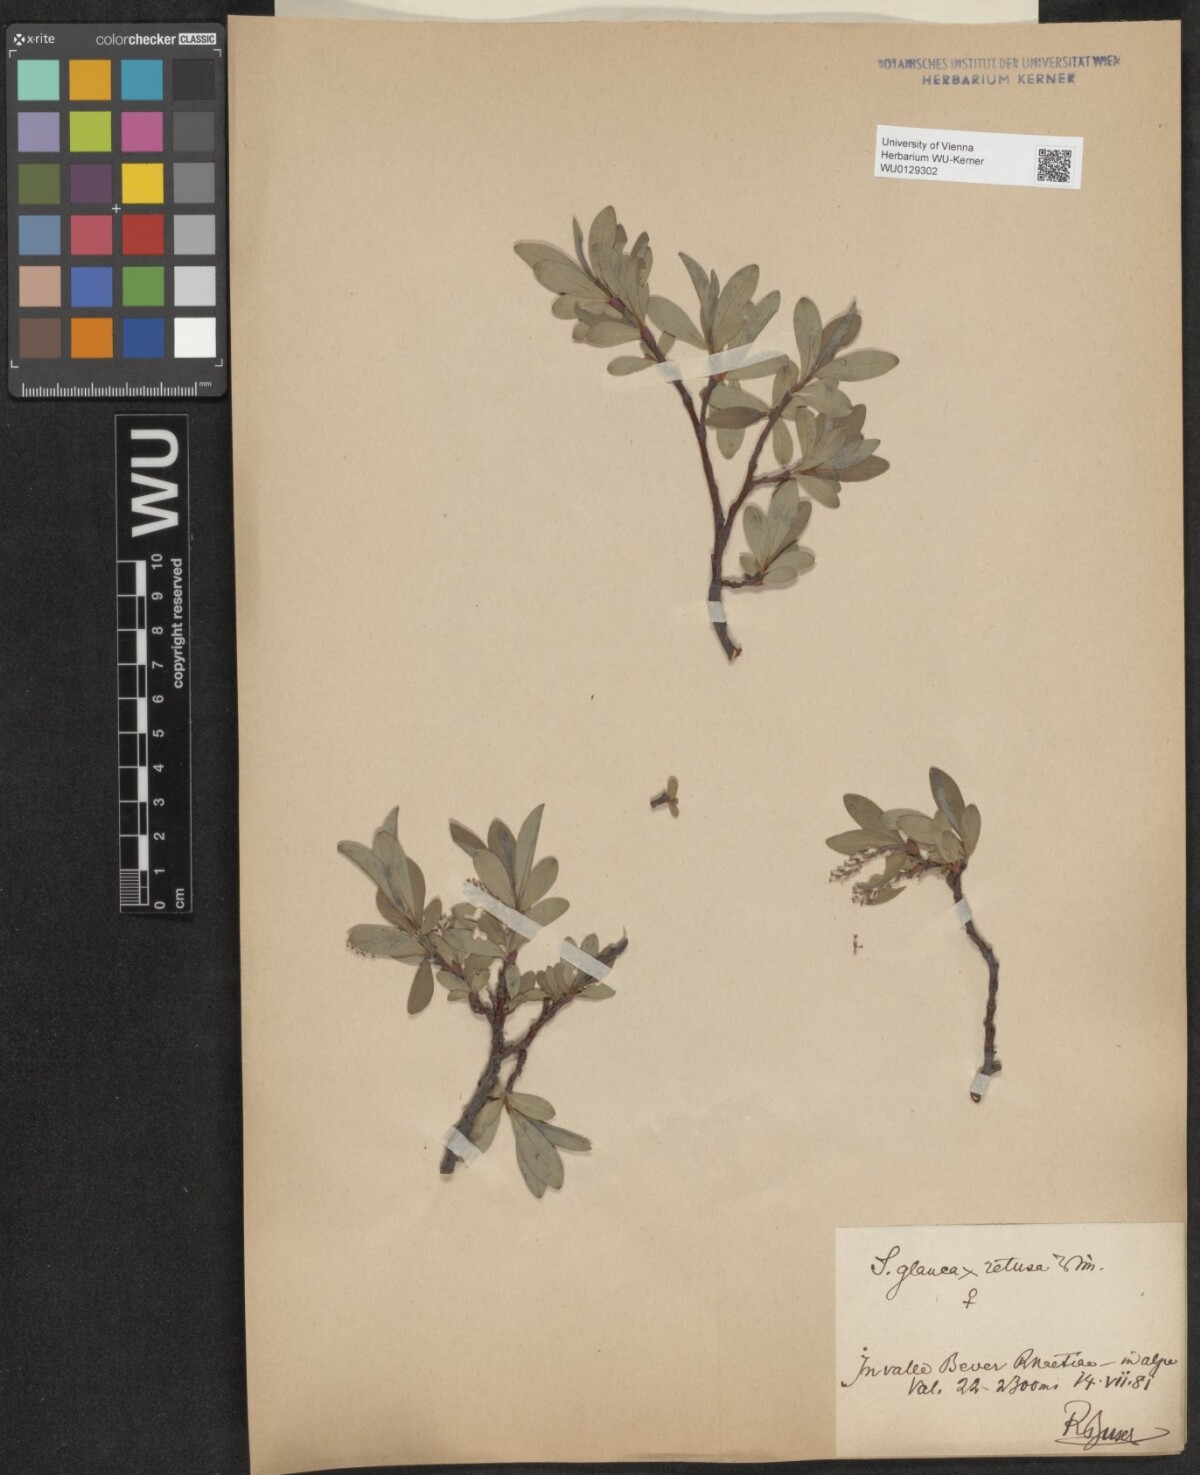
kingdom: Plantae
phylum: Tracheophyta
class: Magnoliopsida
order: Malpighiales
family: Salicaceae
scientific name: Salicaceae
